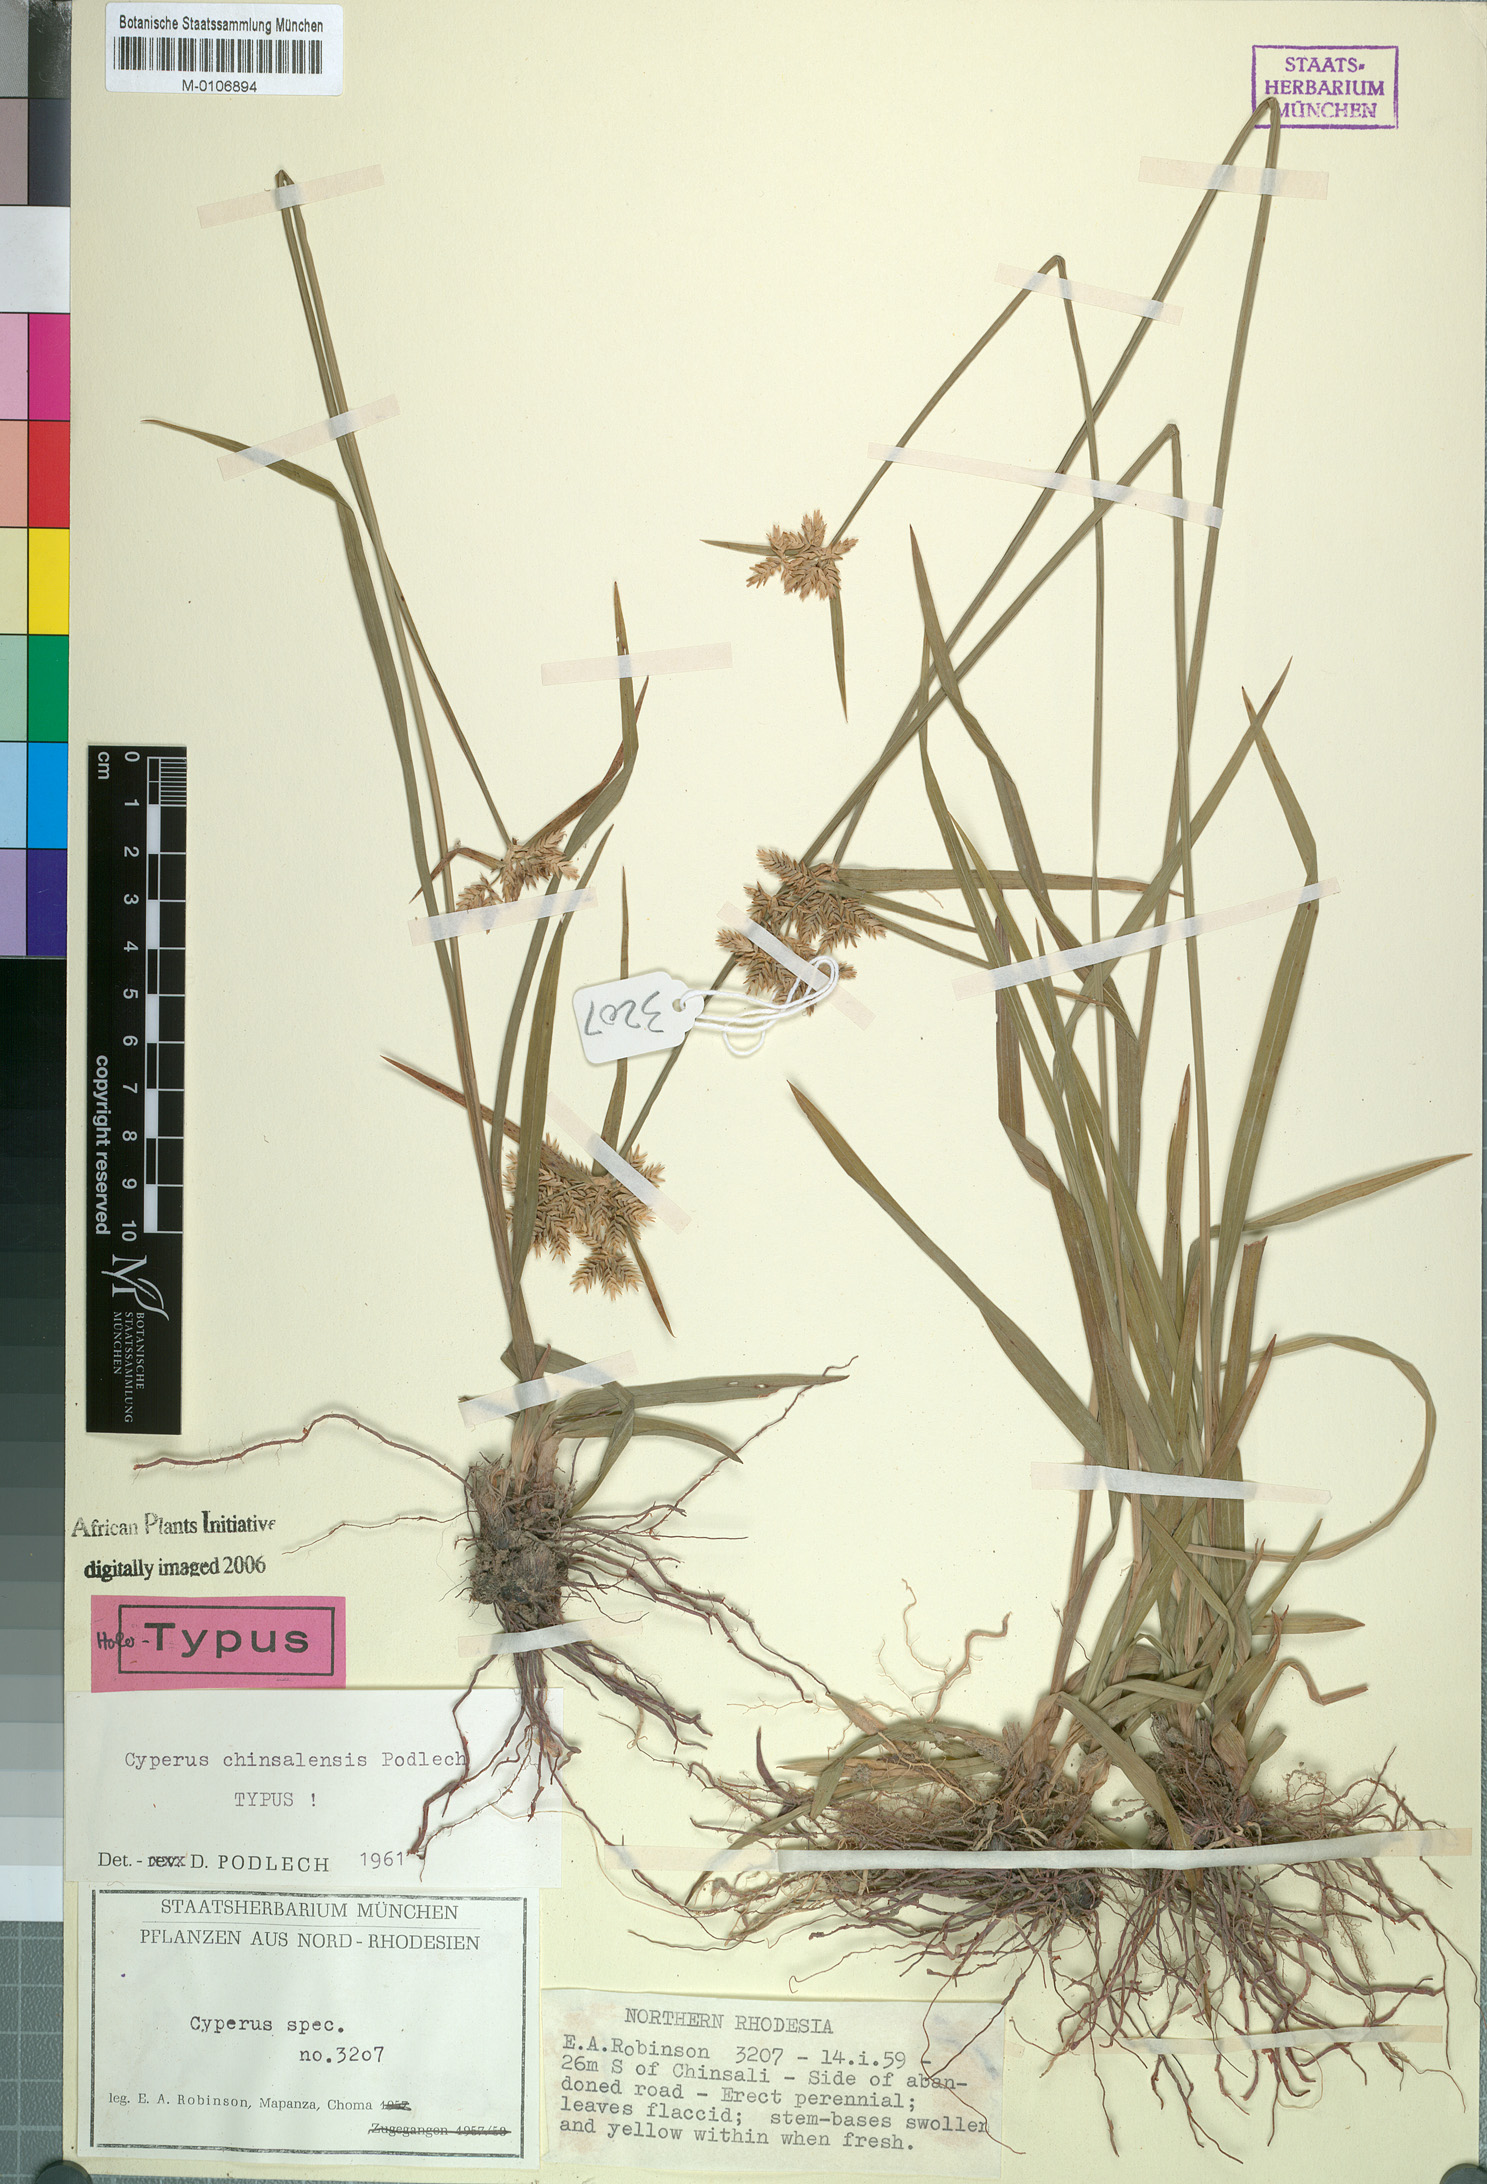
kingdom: Plantae
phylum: Tracheophyta
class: Liliopsida
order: Poales
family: Cyperaceae
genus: Cyperus
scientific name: Cyperus chinsalensis
